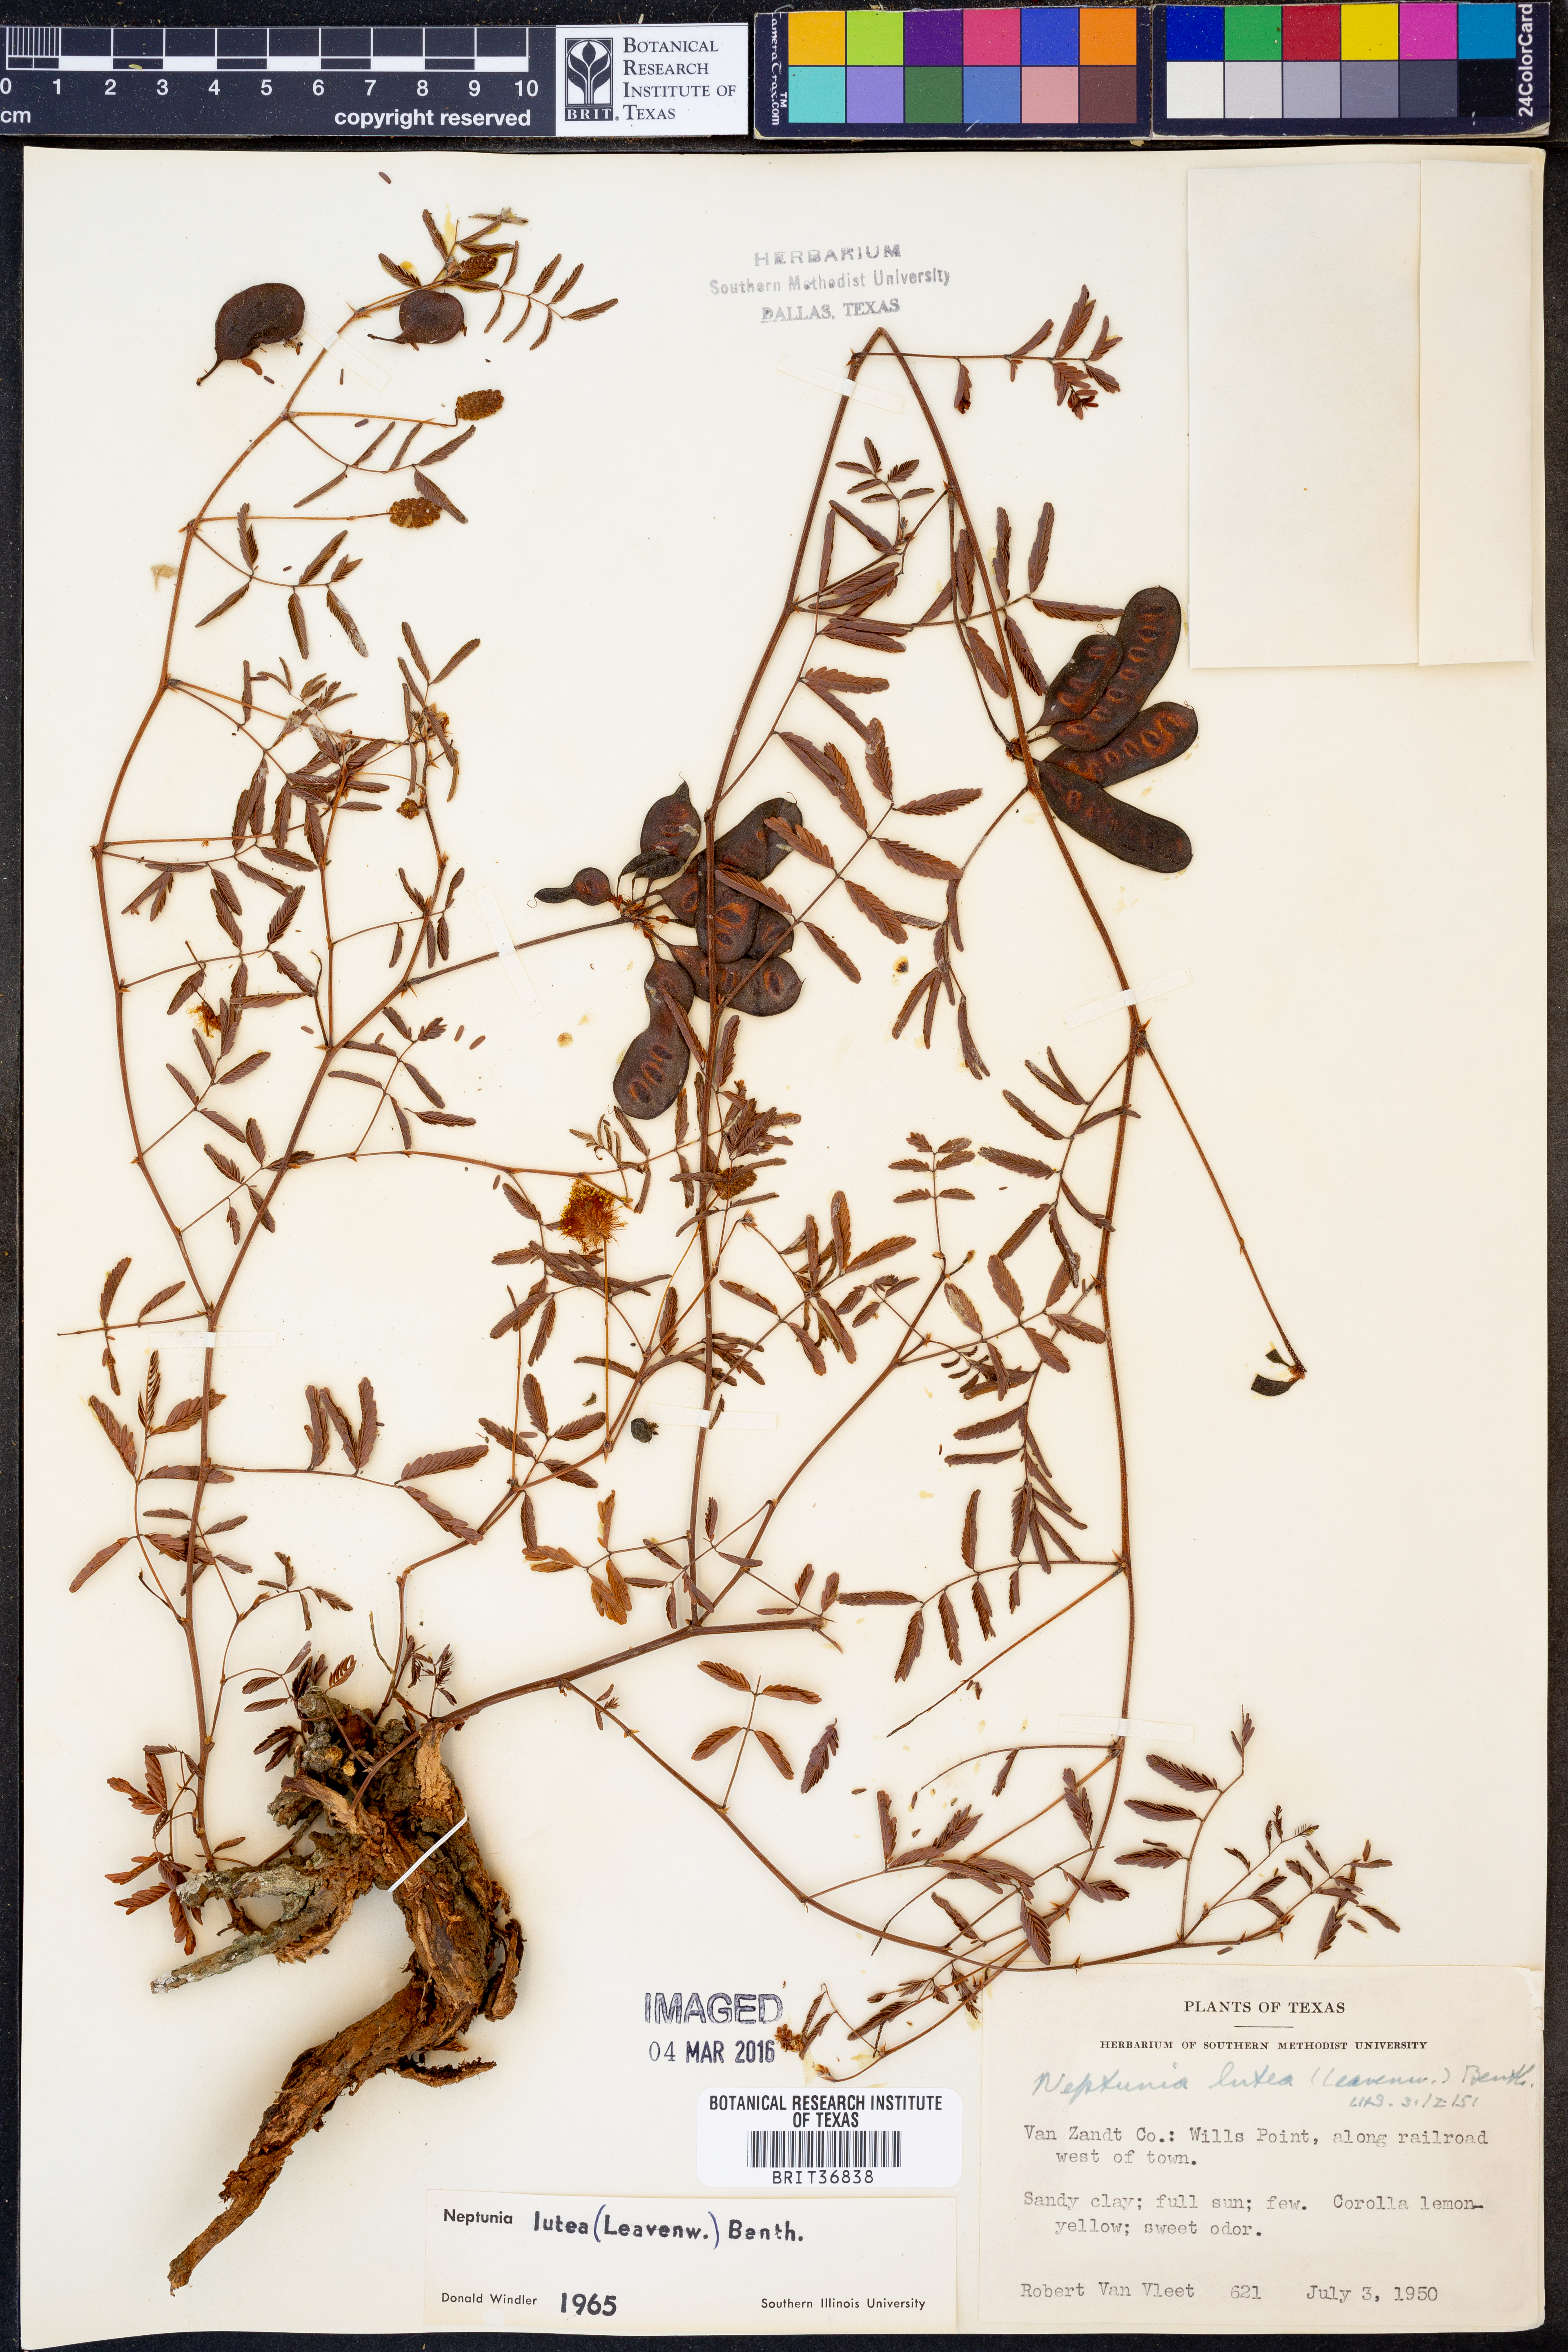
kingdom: Plantae
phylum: Tracheophyta
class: Magnoliopsida
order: Fabales
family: Fabaceae
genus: Neptunia
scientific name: Neptunia lutea
